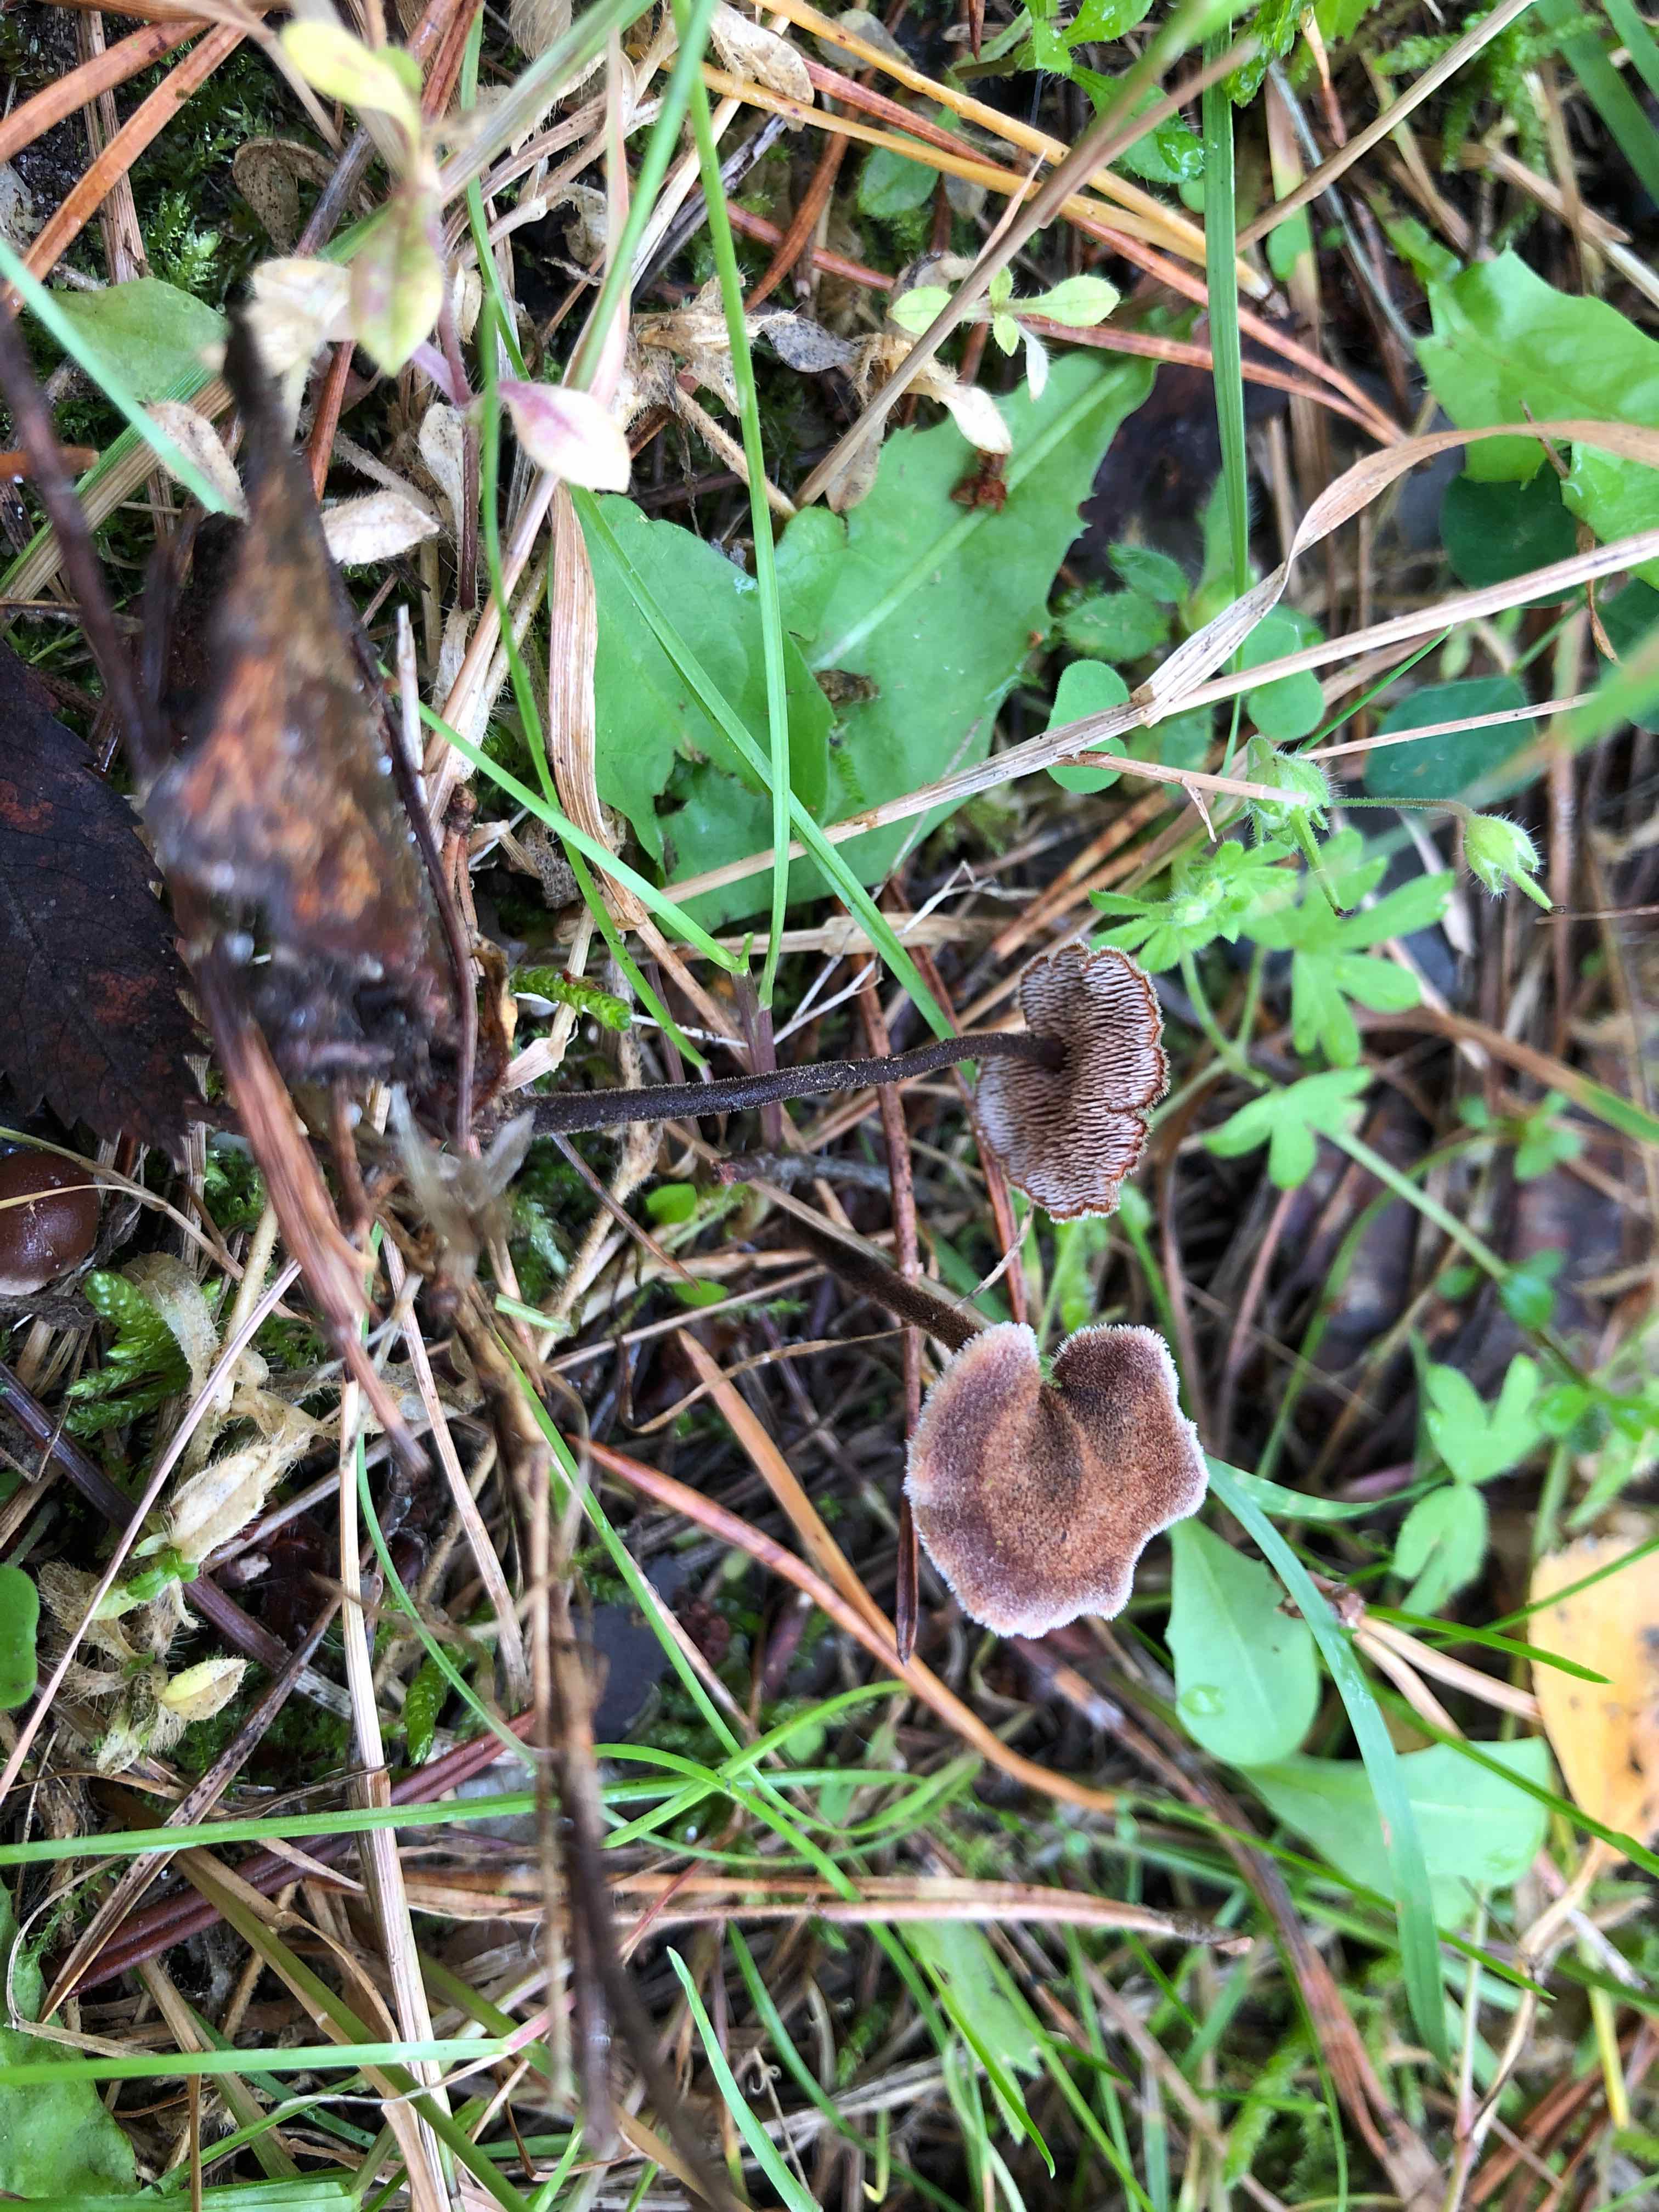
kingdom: Fungi
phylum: Basidiomycota
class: Agaricomycetes
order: Russulales
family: Auriscalpiaceae
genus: Auriscalpium
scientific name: Auriscalpium vulgare
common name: koglepigsvamp
